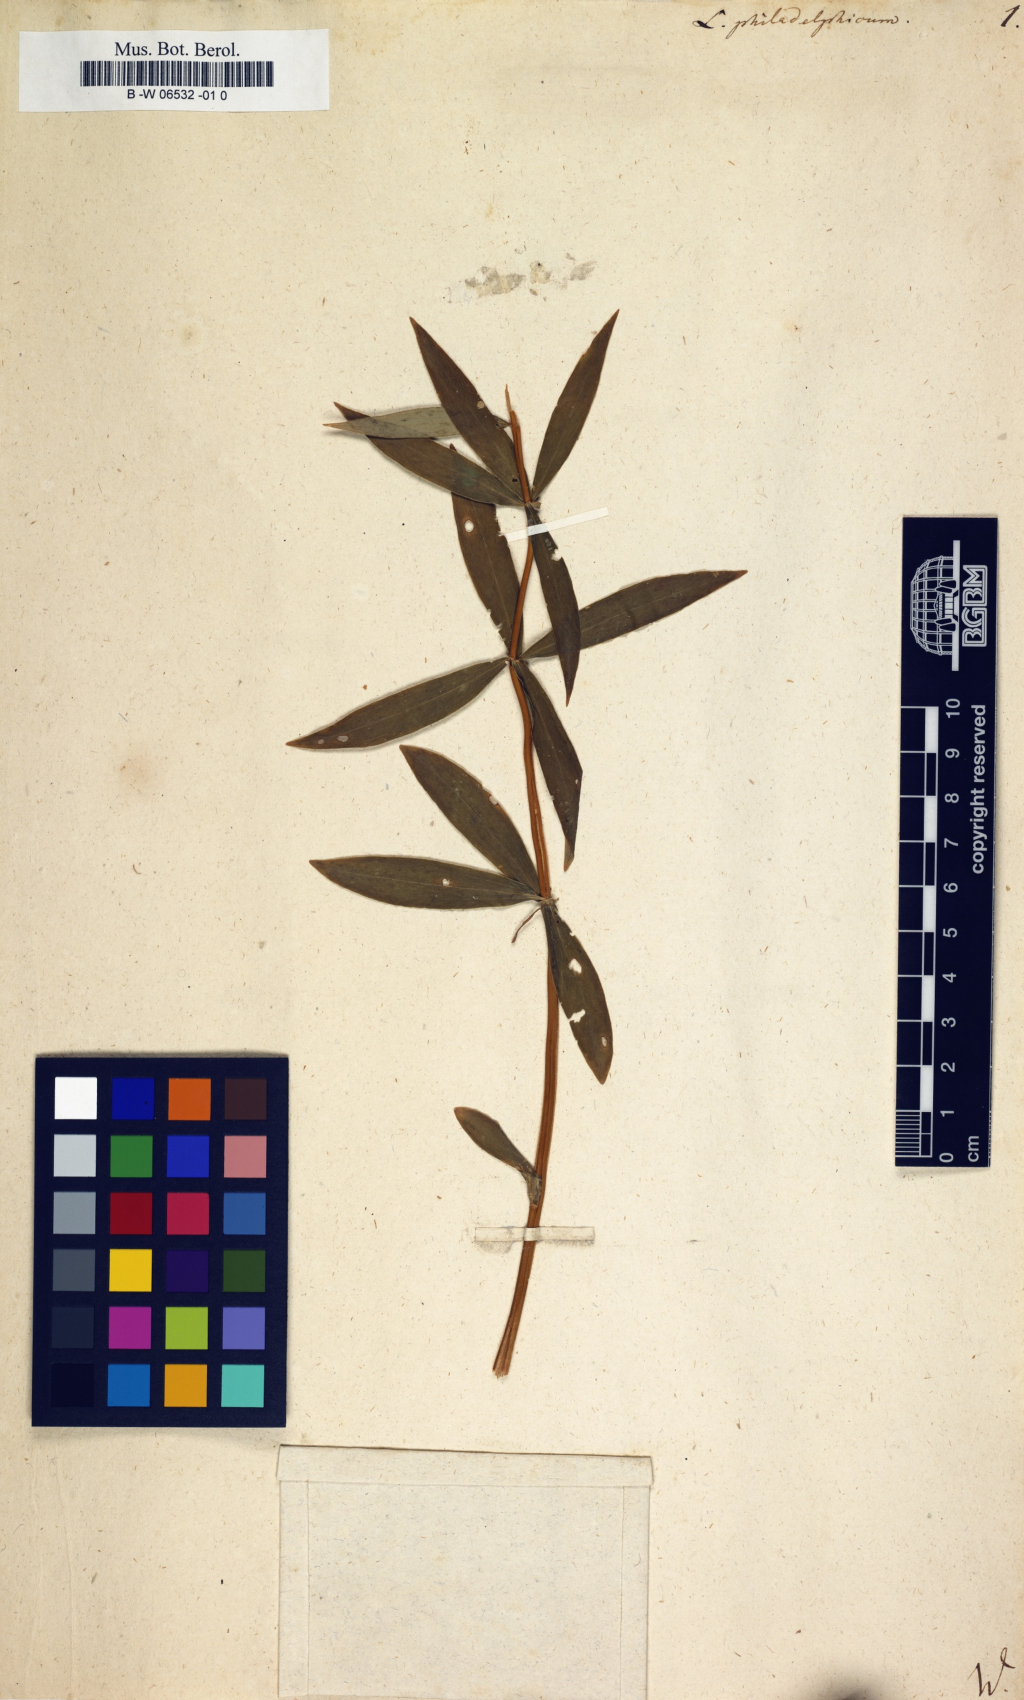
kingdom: Plantae
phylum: Tracheophyta
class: Liliopsida
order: Liliales
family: Liliaceae
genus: Lilium
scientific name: Lilium philadelphicum
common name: Red lily
